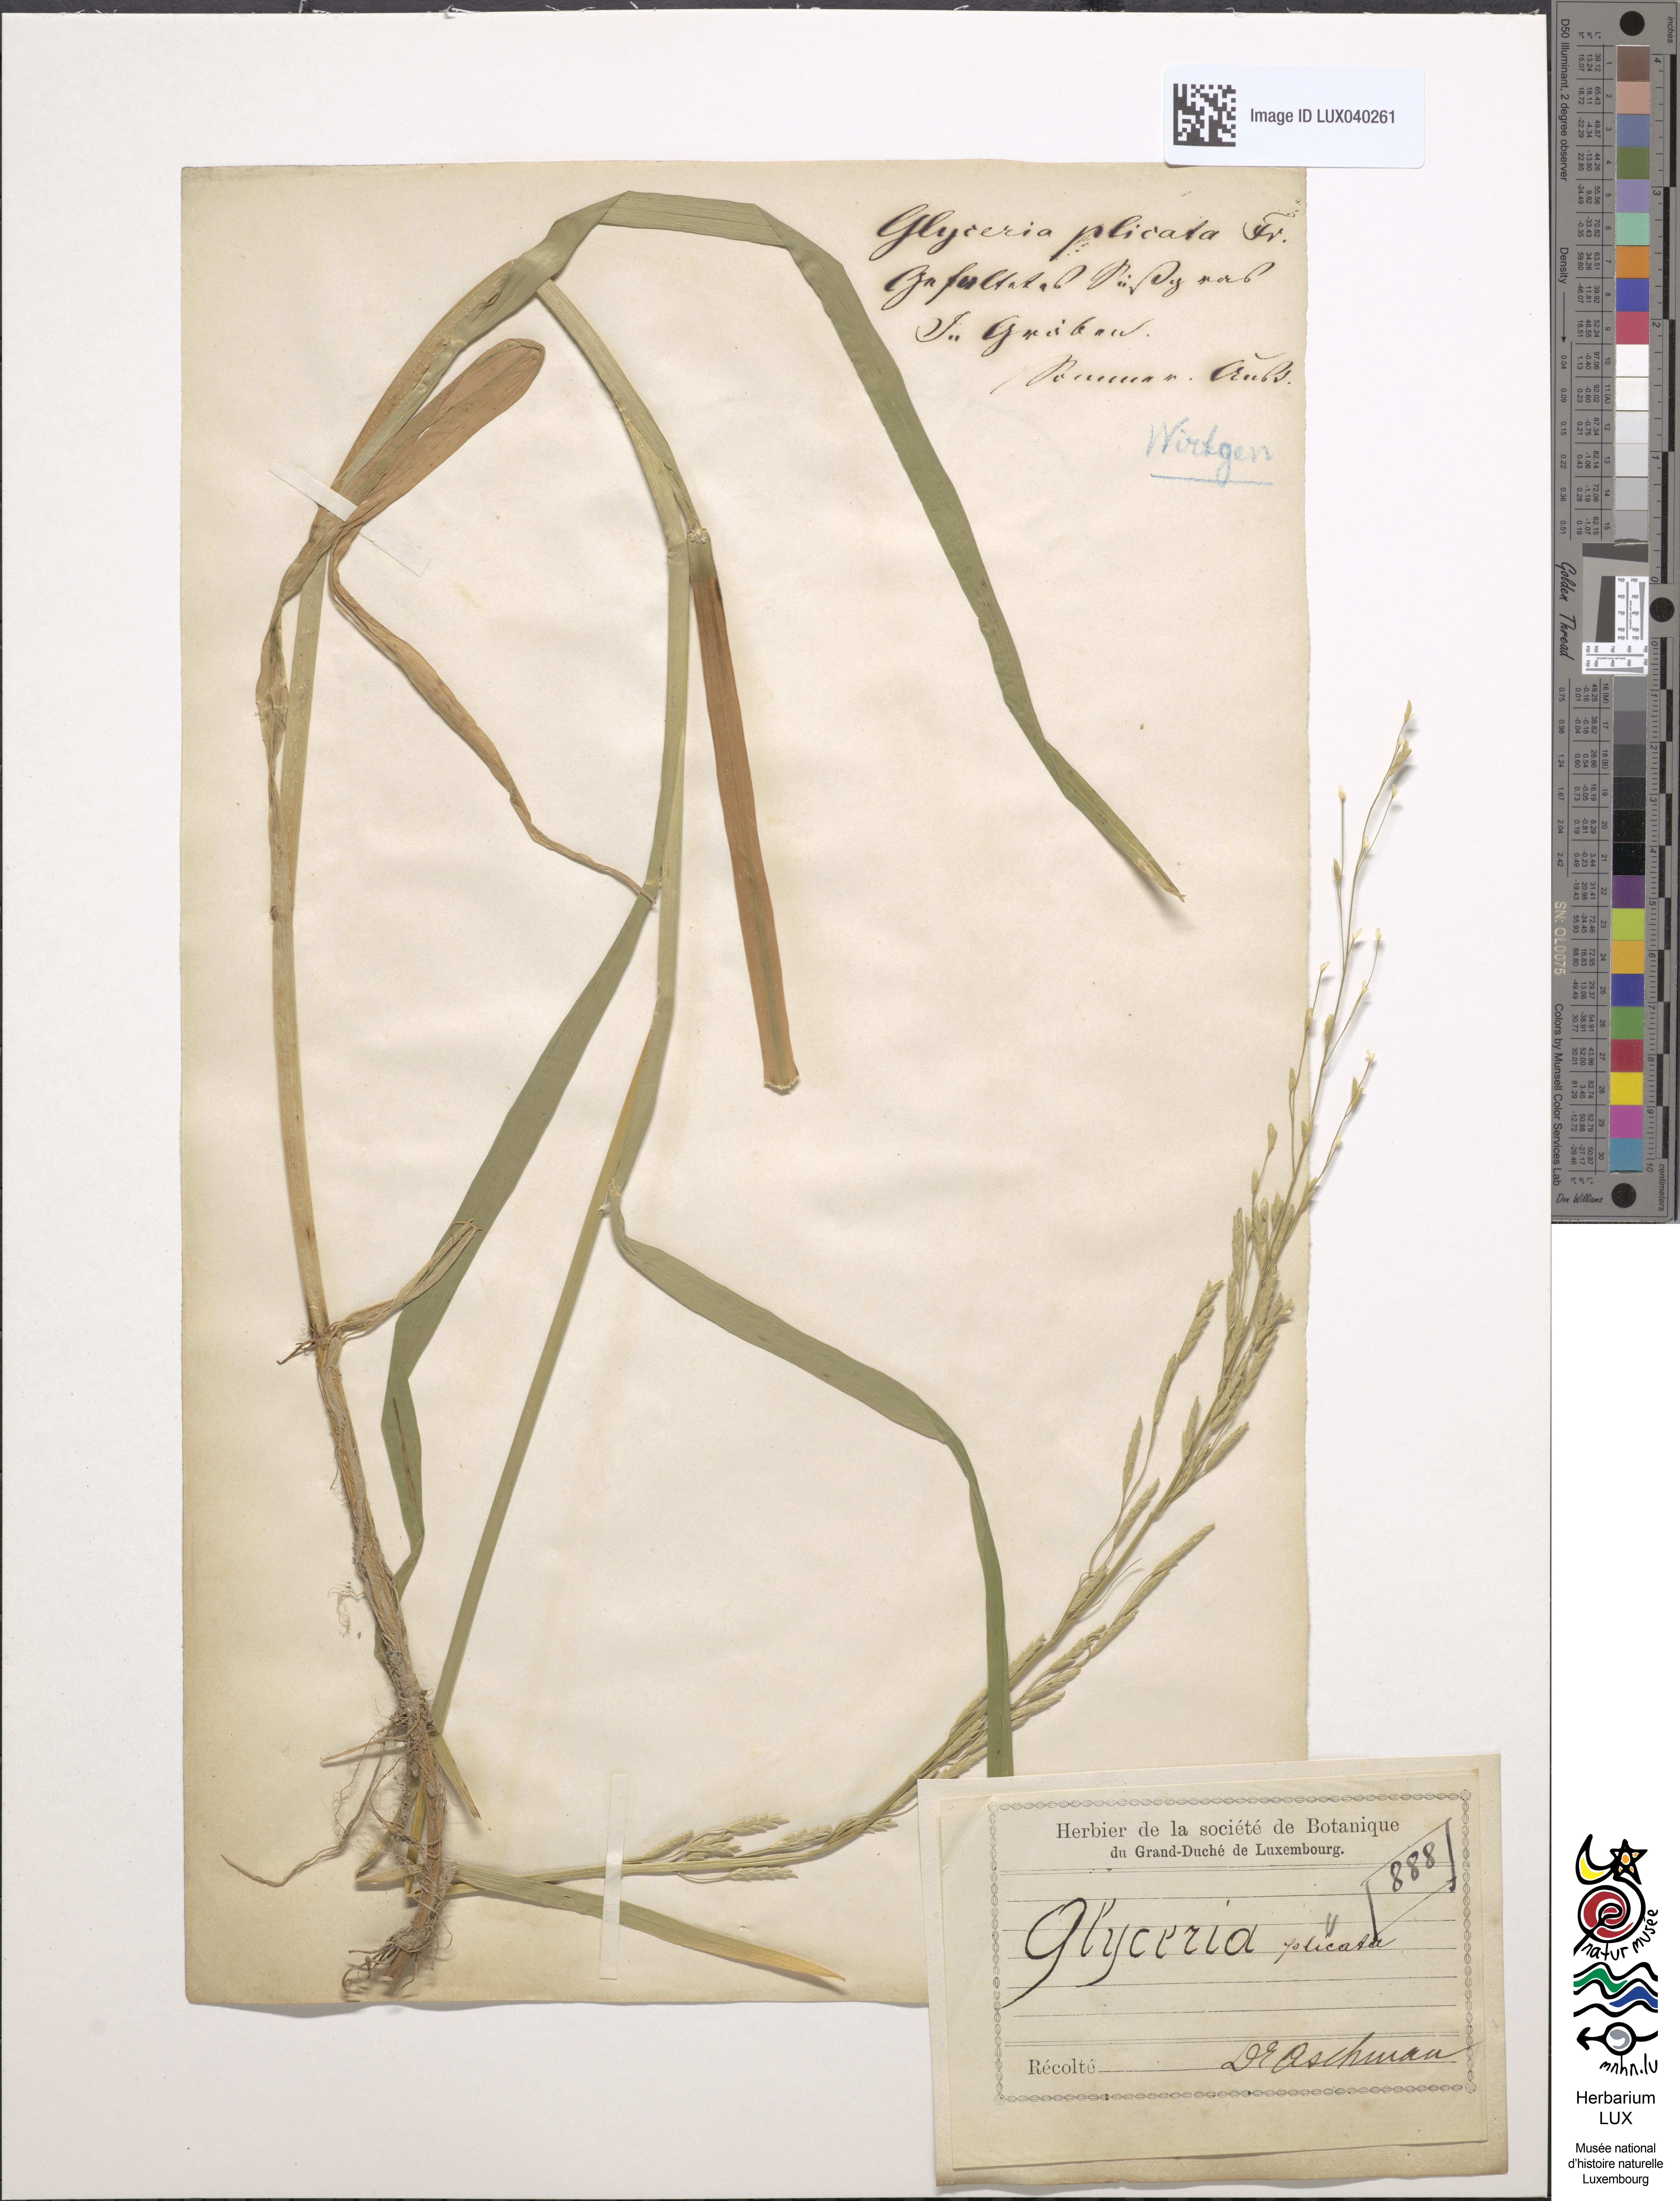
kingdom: Plantae
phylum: Tracheophyta
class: Liliopsida
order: Poales
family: Poaceae
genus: Glyceria
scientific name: Glyceria notata
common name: Plicate sweet-grass
